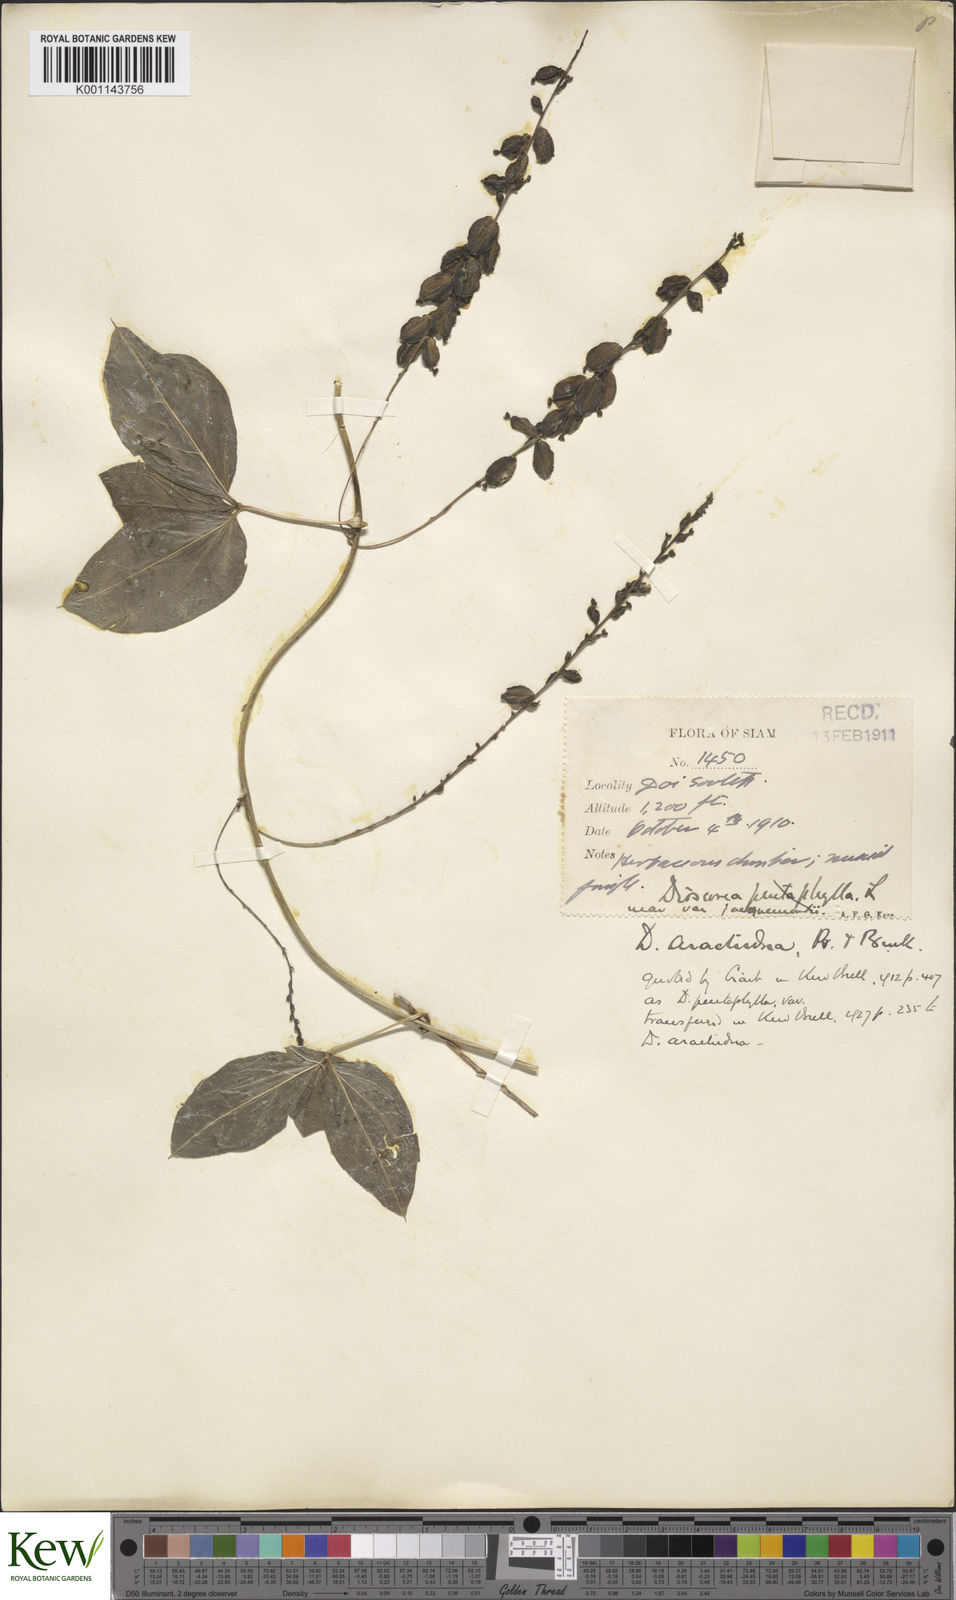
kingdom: Plantae
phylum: Tracheophyta
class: Liliopsida
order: Dioscoreales
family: Dioscoreaceae
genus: Dioscorea
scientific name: Dioscorea arachidna
